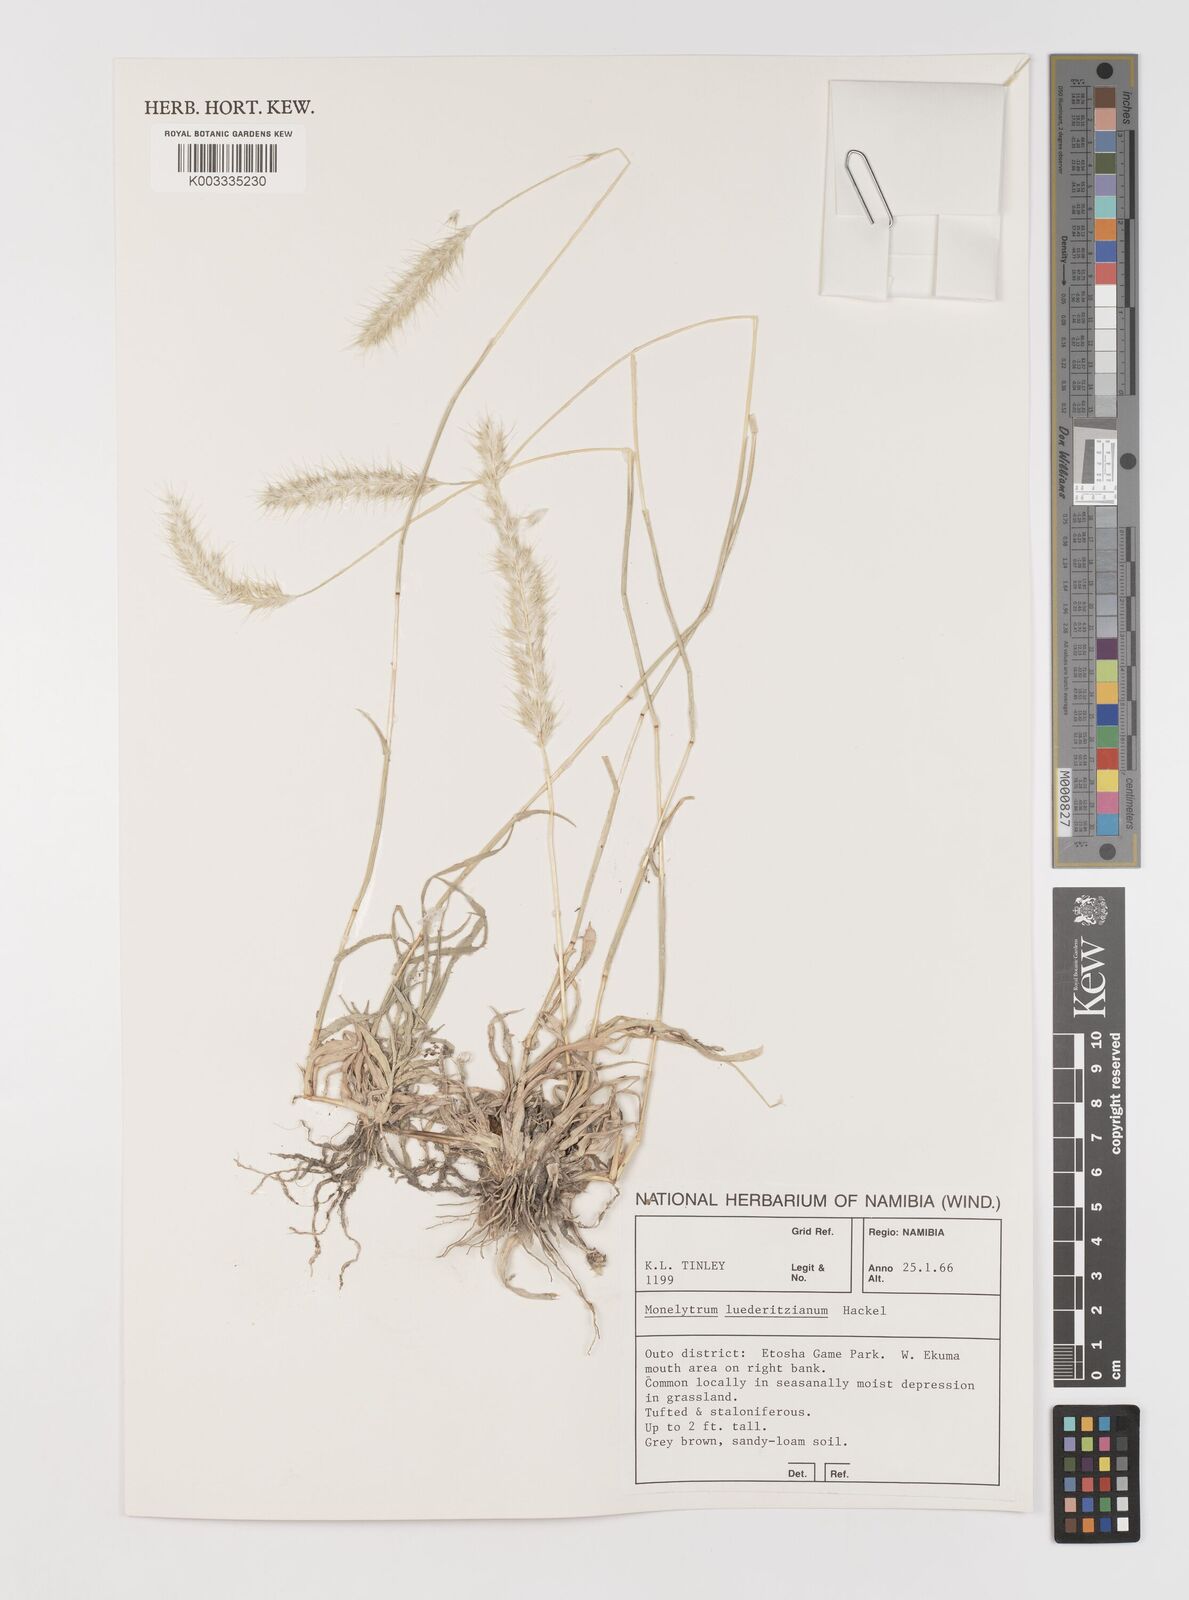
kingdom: Plantae
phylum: Tracheophyta
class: Liliopsida
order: Poales
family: Poaceae
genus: Monelytrum
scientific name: Monelytrum luederitzianum
